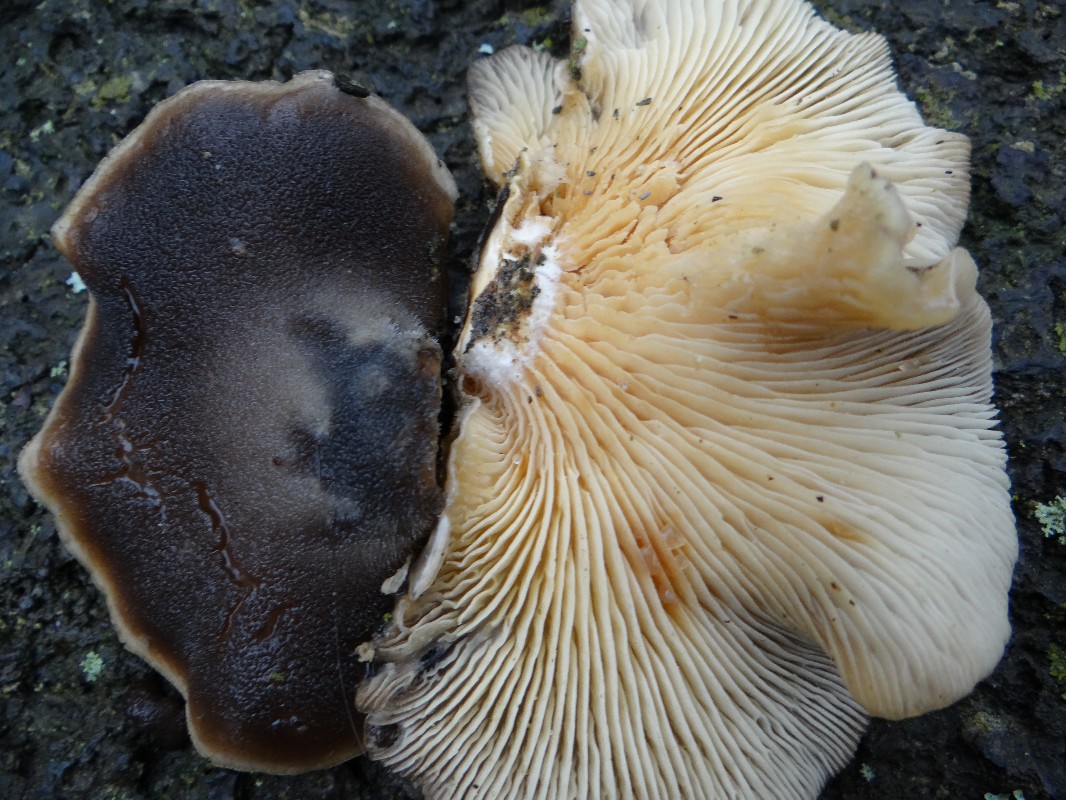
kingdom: Fungi
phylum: Basidiomycota
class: Agaricomycetes
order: Agaricales
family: Sarcomyxaceae
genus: Sarcomyxa
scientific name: Sarcomyxa serotina
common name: gummihat
